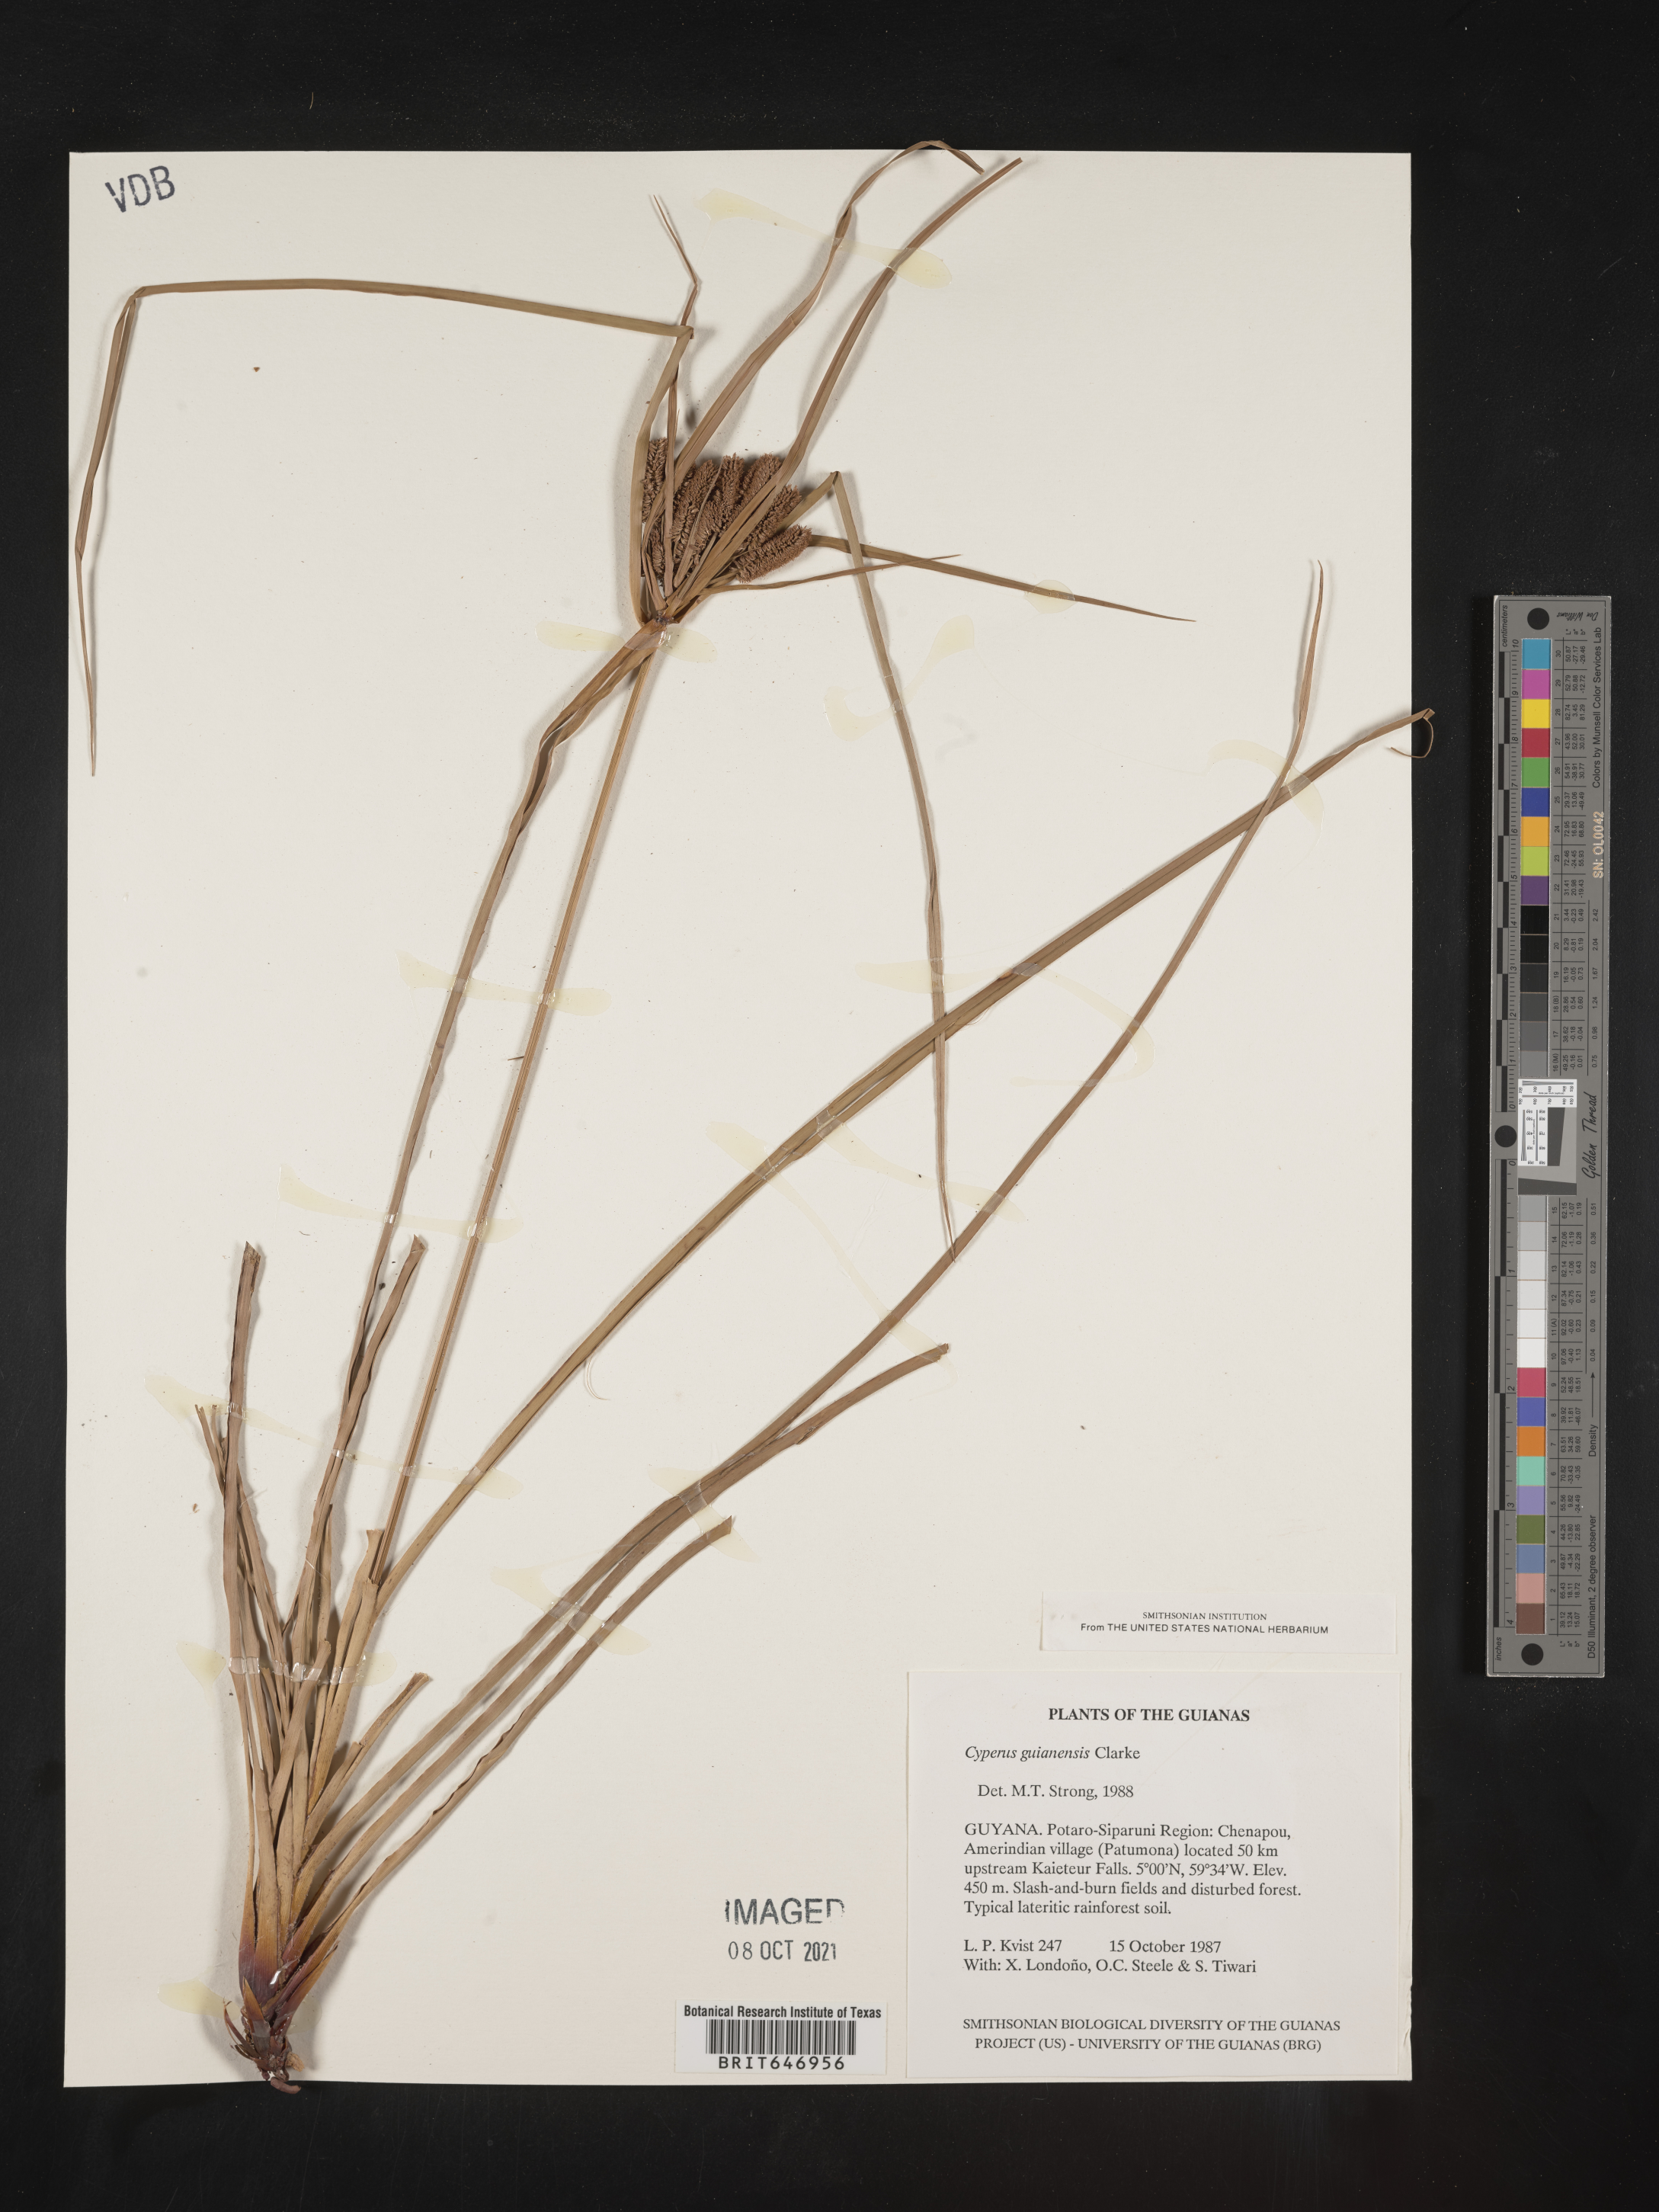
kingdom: Plantae
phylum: Tracheophyta
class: Liliopsida
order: Poales
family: Cyperaceae
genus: Cyperus
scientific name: Cyperus guianensis
